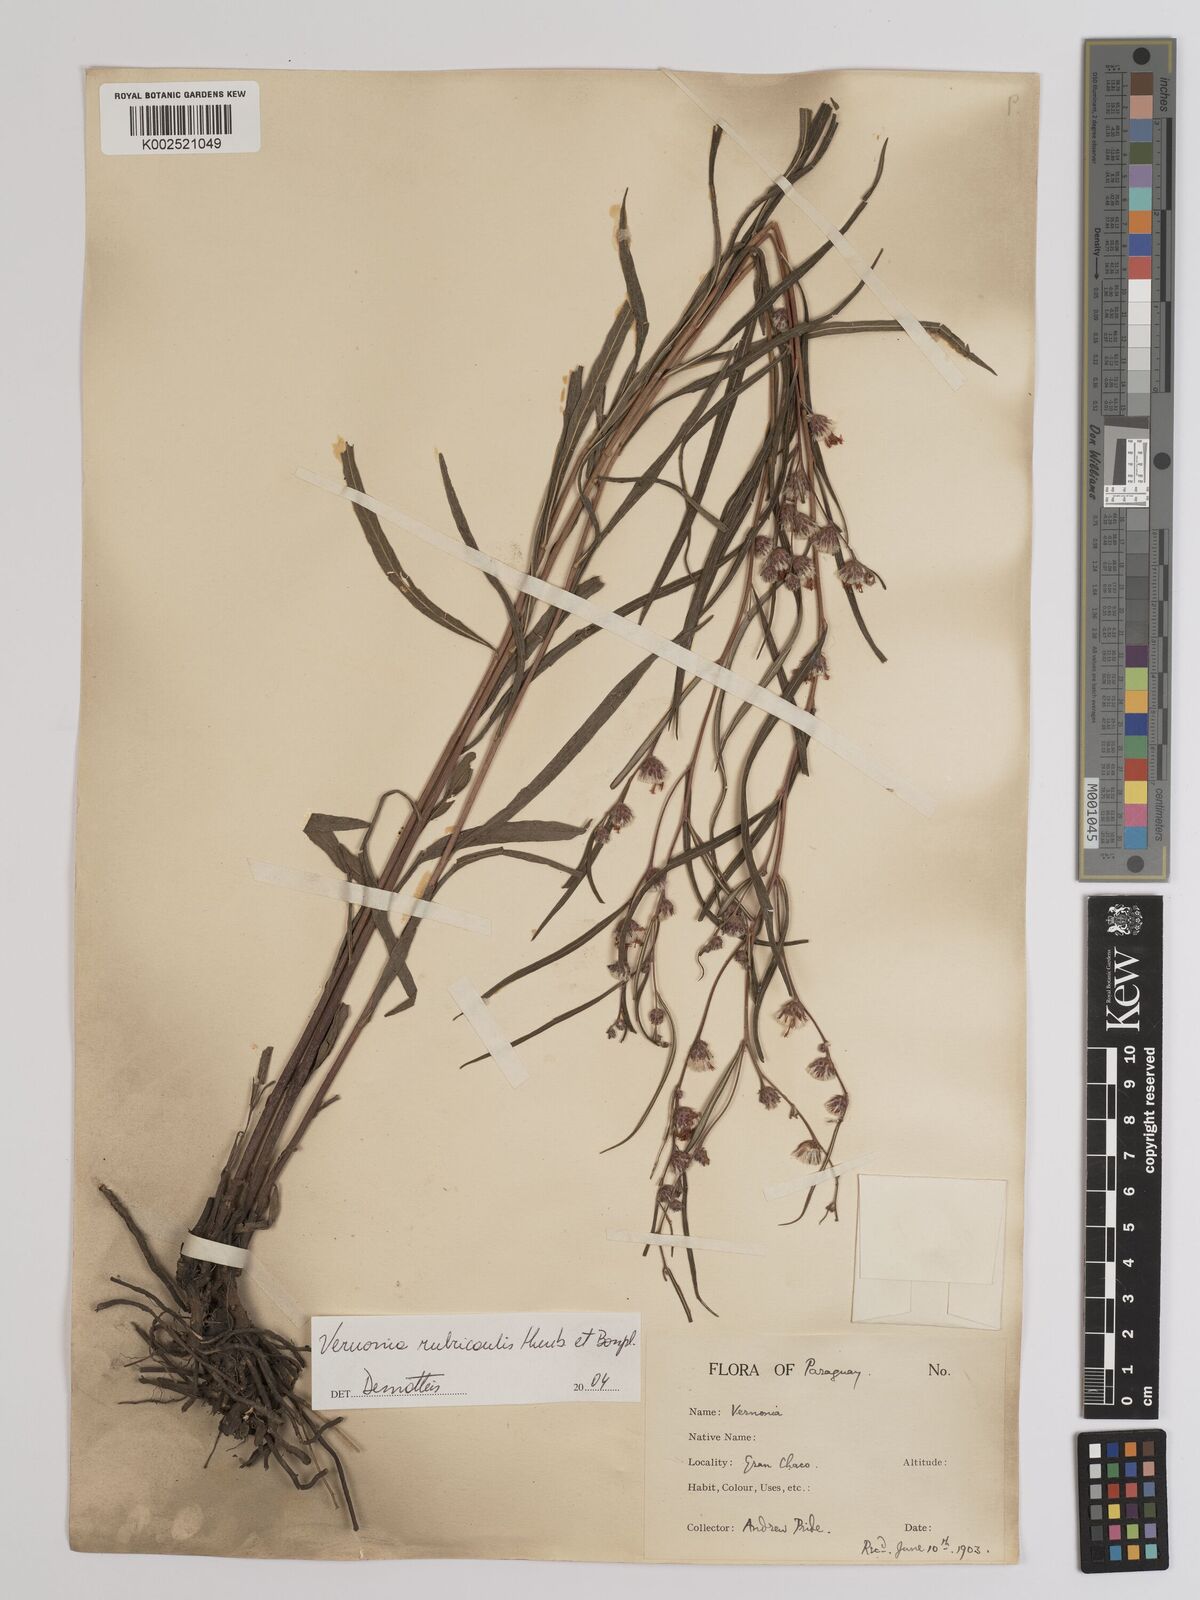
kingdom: Plantae
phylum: Tracheophyta
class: Magnoliopsida
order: Asterales
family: Asteraceae
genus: Lessingianthus
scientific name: Lessingianthus rubricaulis
